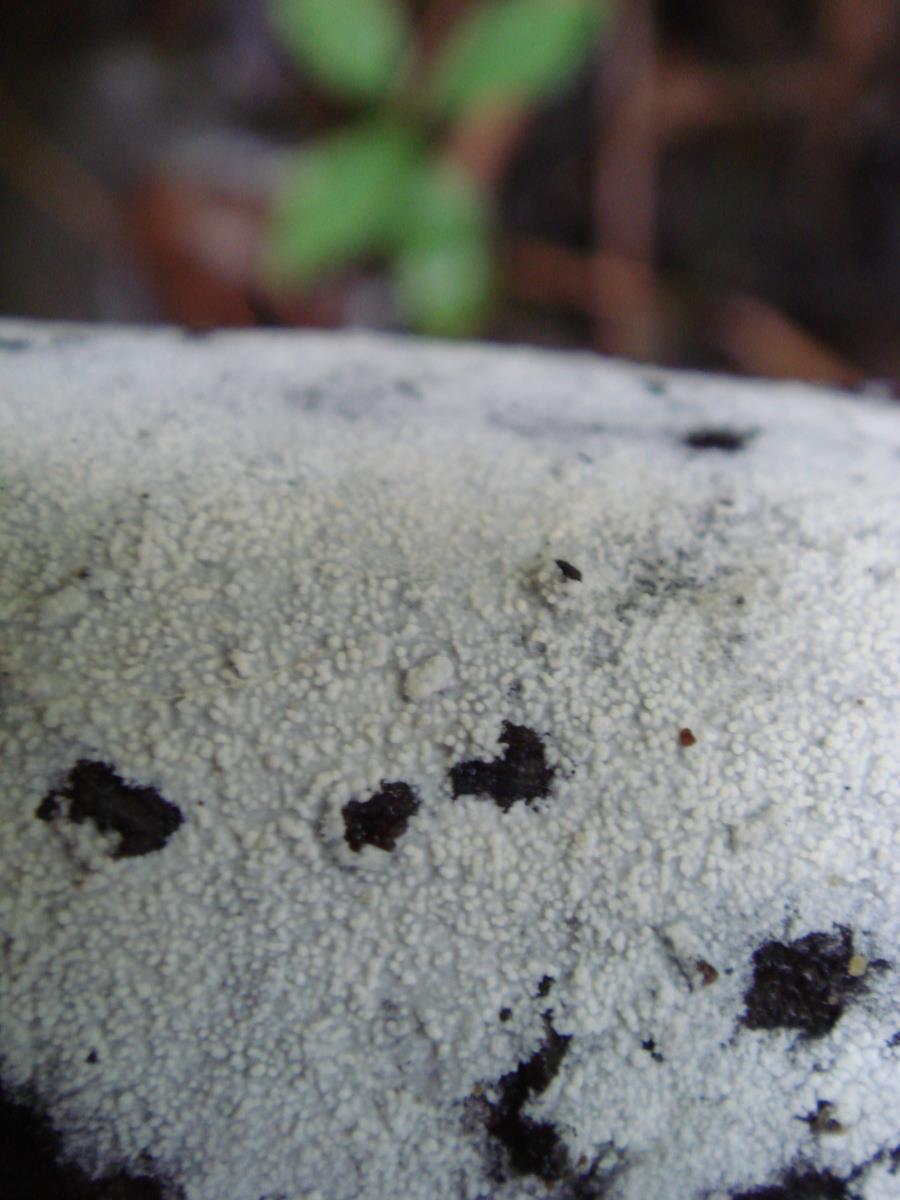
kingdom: Fungi
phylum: Basidiomycota
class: Agaricomycetes
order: Polyporales
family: Meruliaceae
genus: Hypochnicium
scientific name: Hypochnicium lyndoniae
